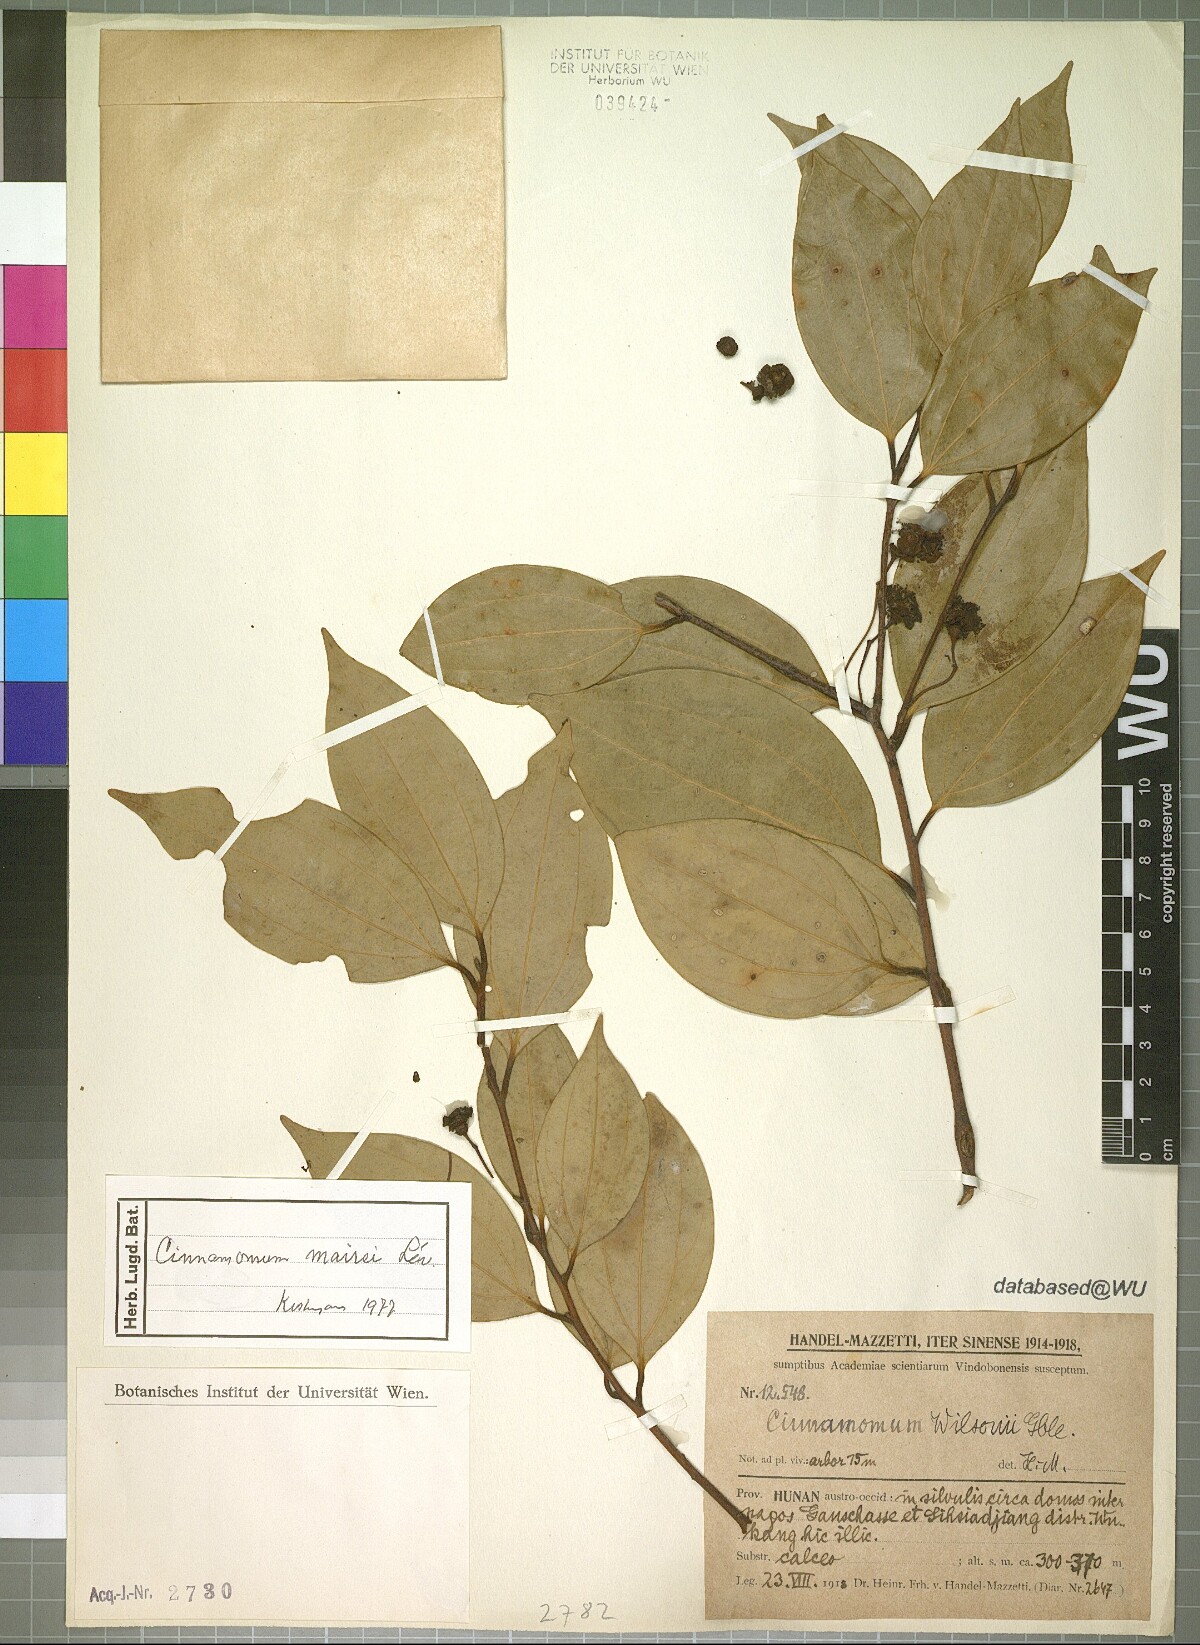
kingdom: Plantae
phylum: Tracheophyta
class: Magnoliopsida
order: Laurales
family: Lauraceae
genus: Cinnamomum
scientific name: Cinnamomum mairei
